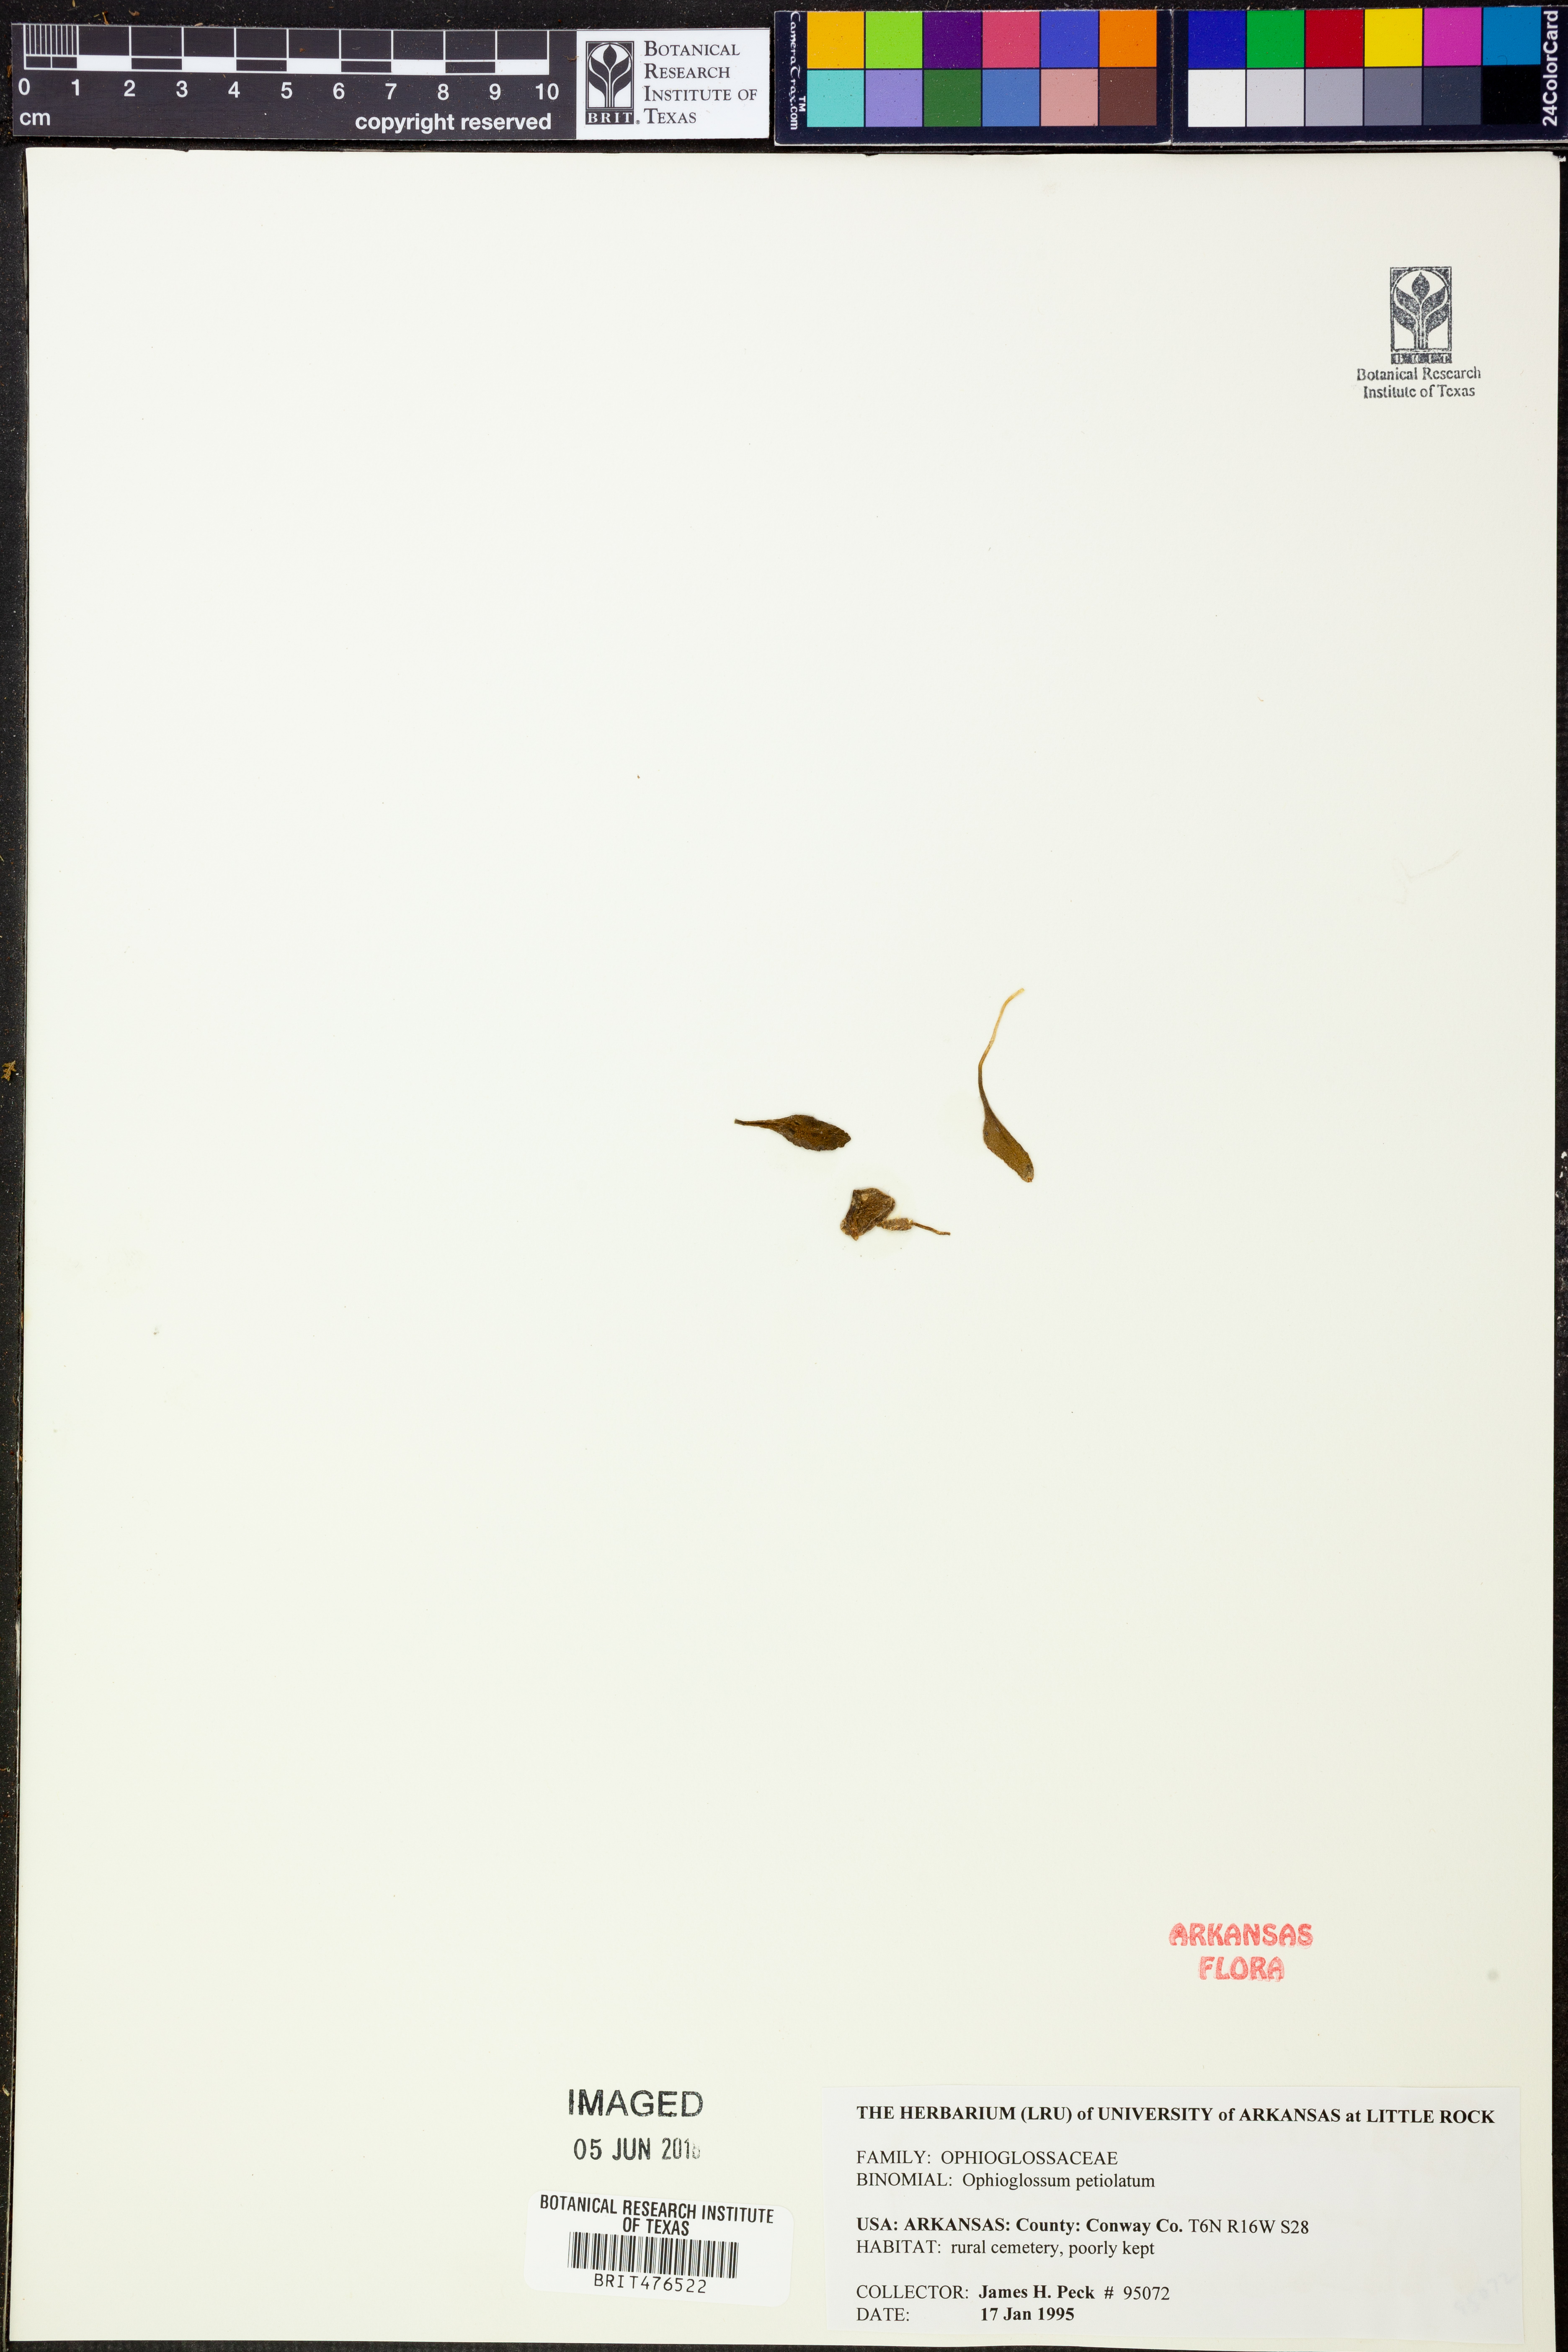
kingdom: Plantae
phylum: Tracheophyta
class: Polypodiopsida
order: Ophioglossales
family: Ophioglossaceae
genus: Ophioglossum
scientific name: Ophioglossum petiolatum
